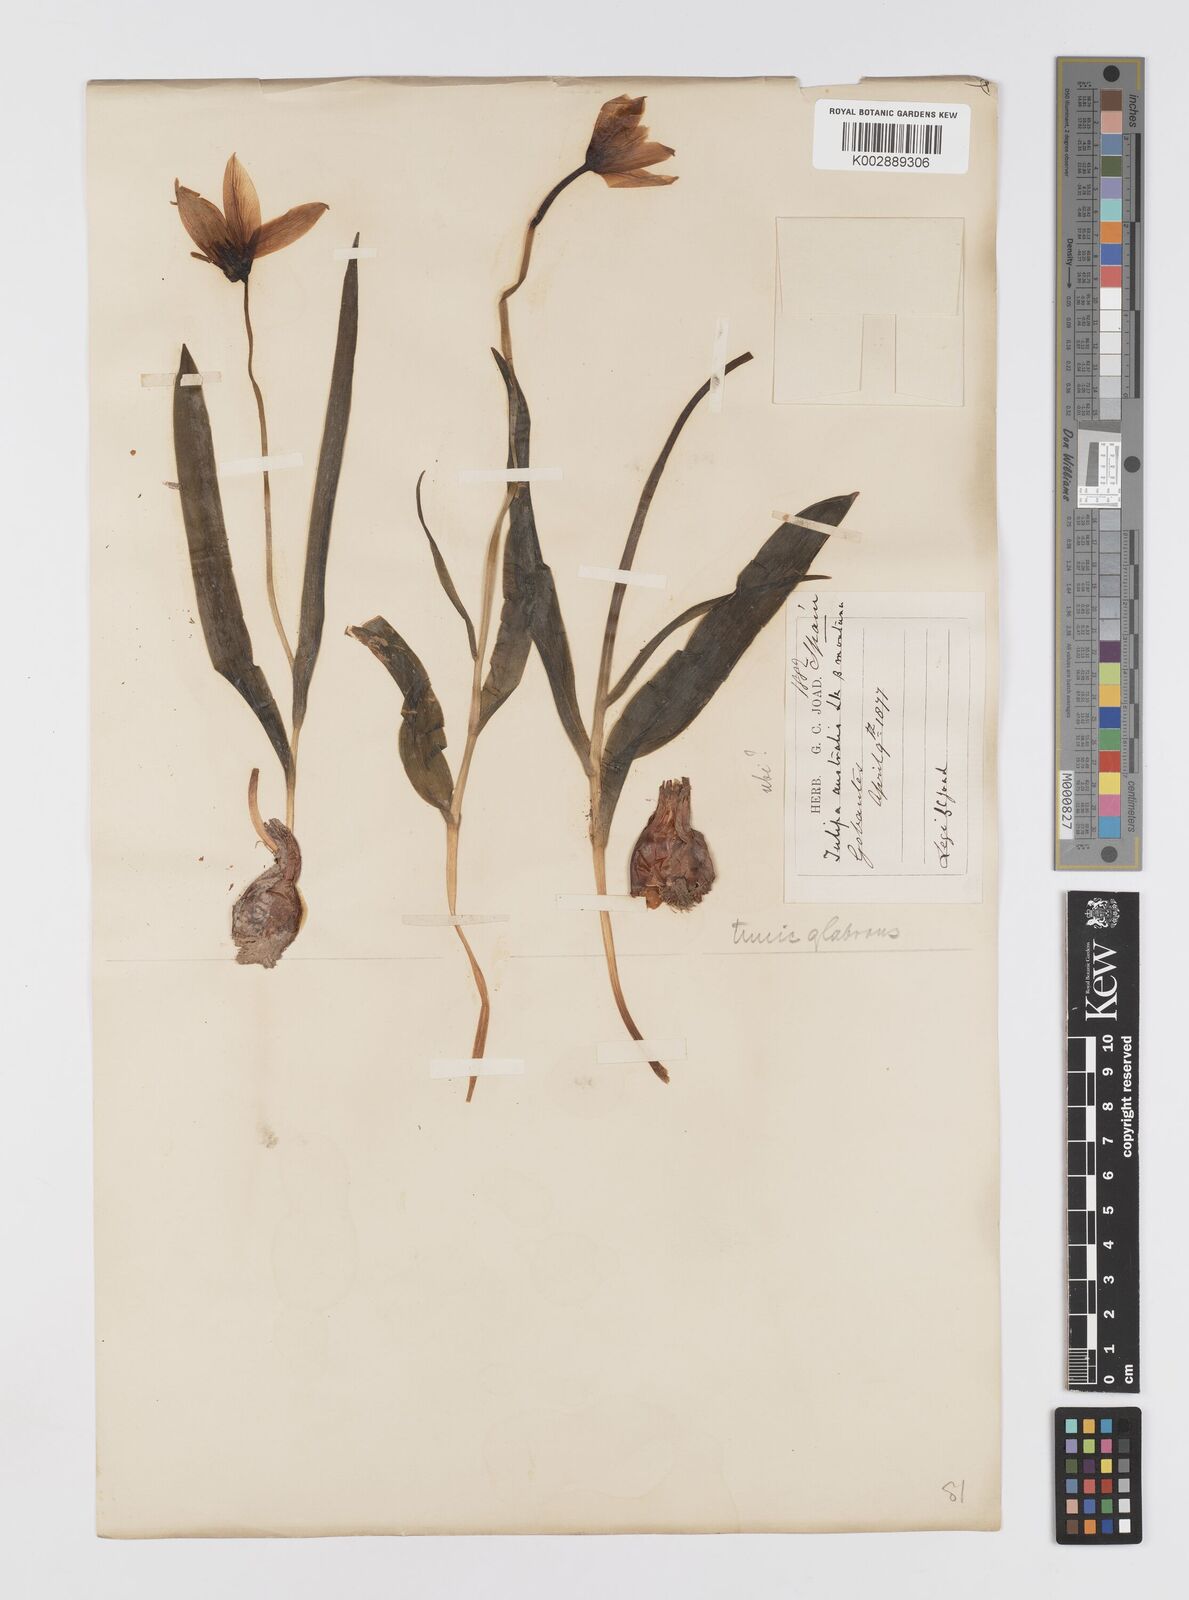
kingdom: Plantae
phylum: Tracheophyta
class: Liliopsida
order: Liliales
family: Liliaceae
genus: Tulipa
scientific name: Tulipa
